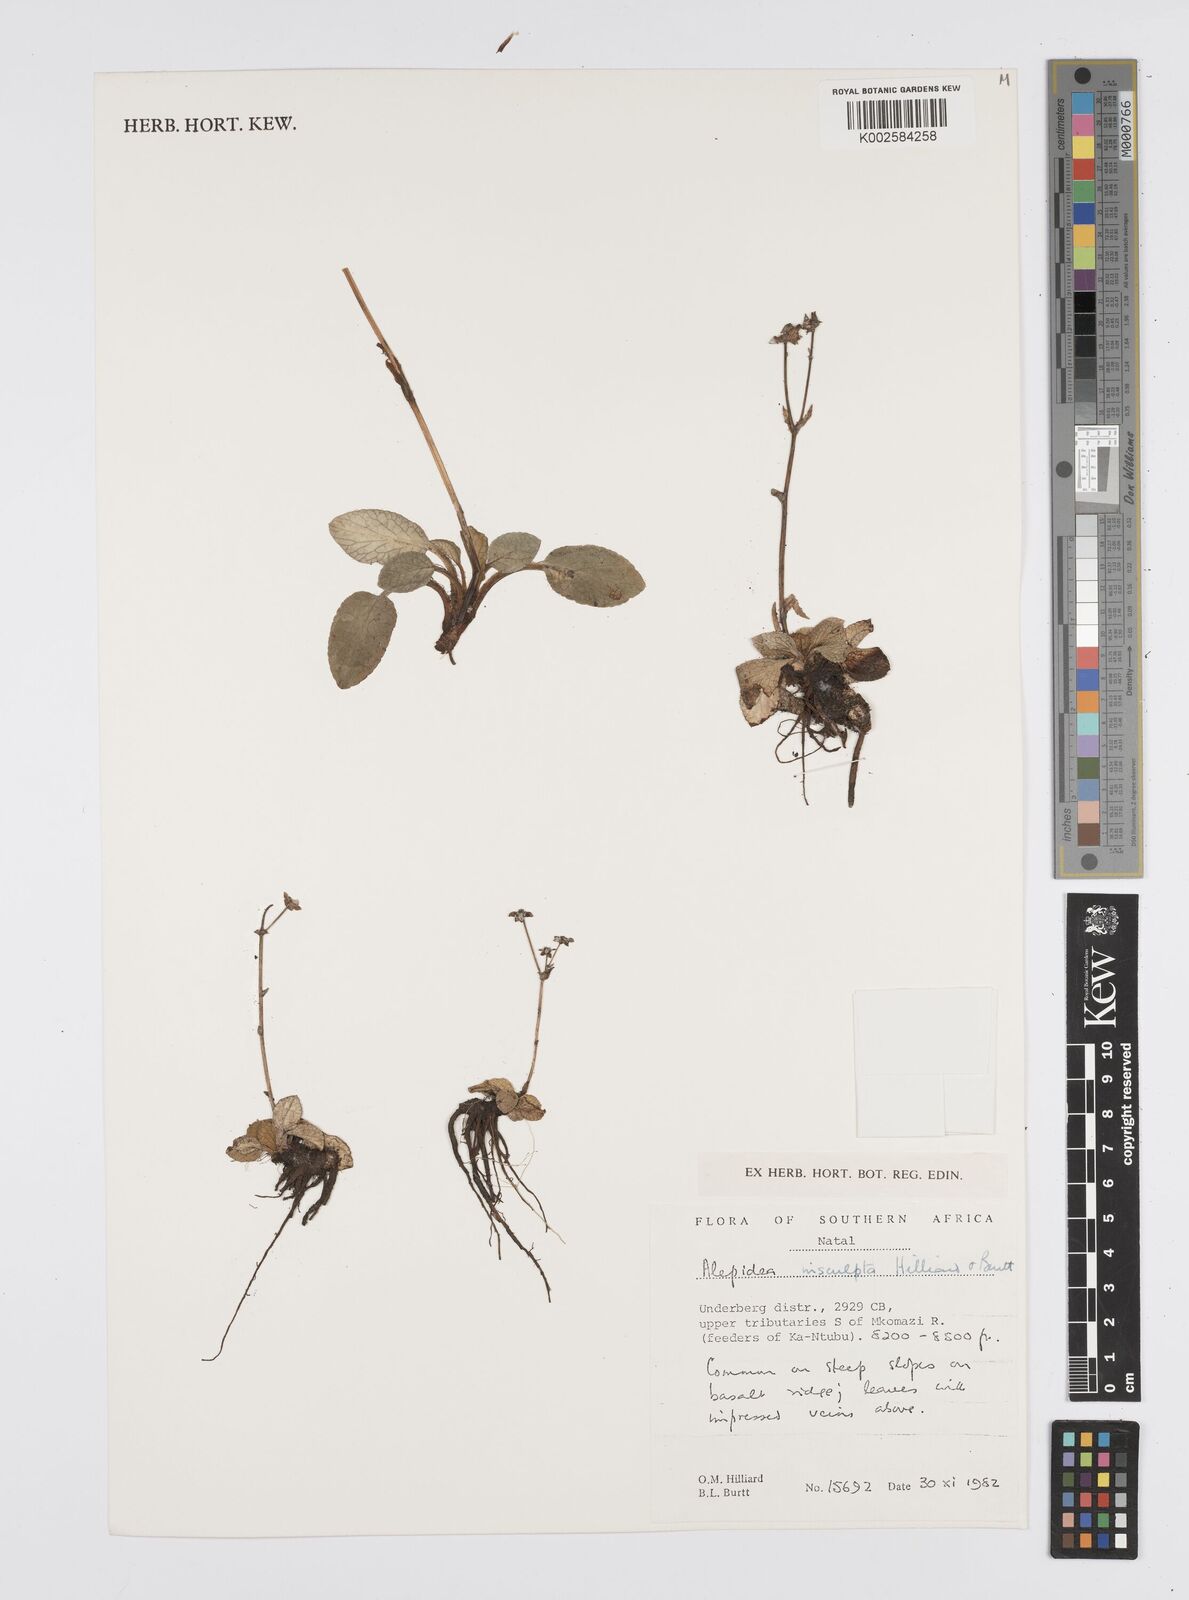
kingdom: Plantae
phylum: Tracheophyta
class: Magnoliopsida
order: Apiales
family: Apiaceae
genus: Alepidea
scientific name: Alepidea insculpta
